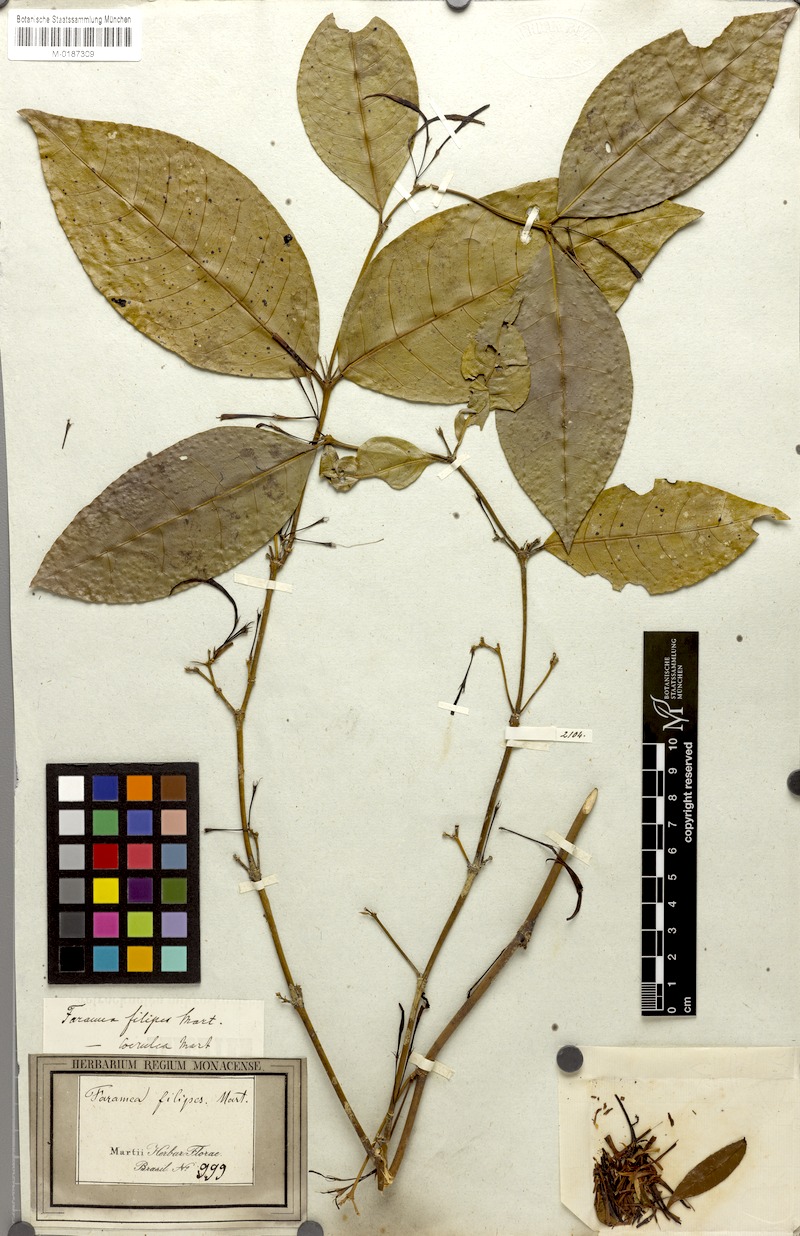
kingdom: Plantae
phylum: Tracheophyta
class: Magnoliopsida
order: Gentianales
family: Rubiaceae
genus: Faramea
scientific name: Faramea coerulea
